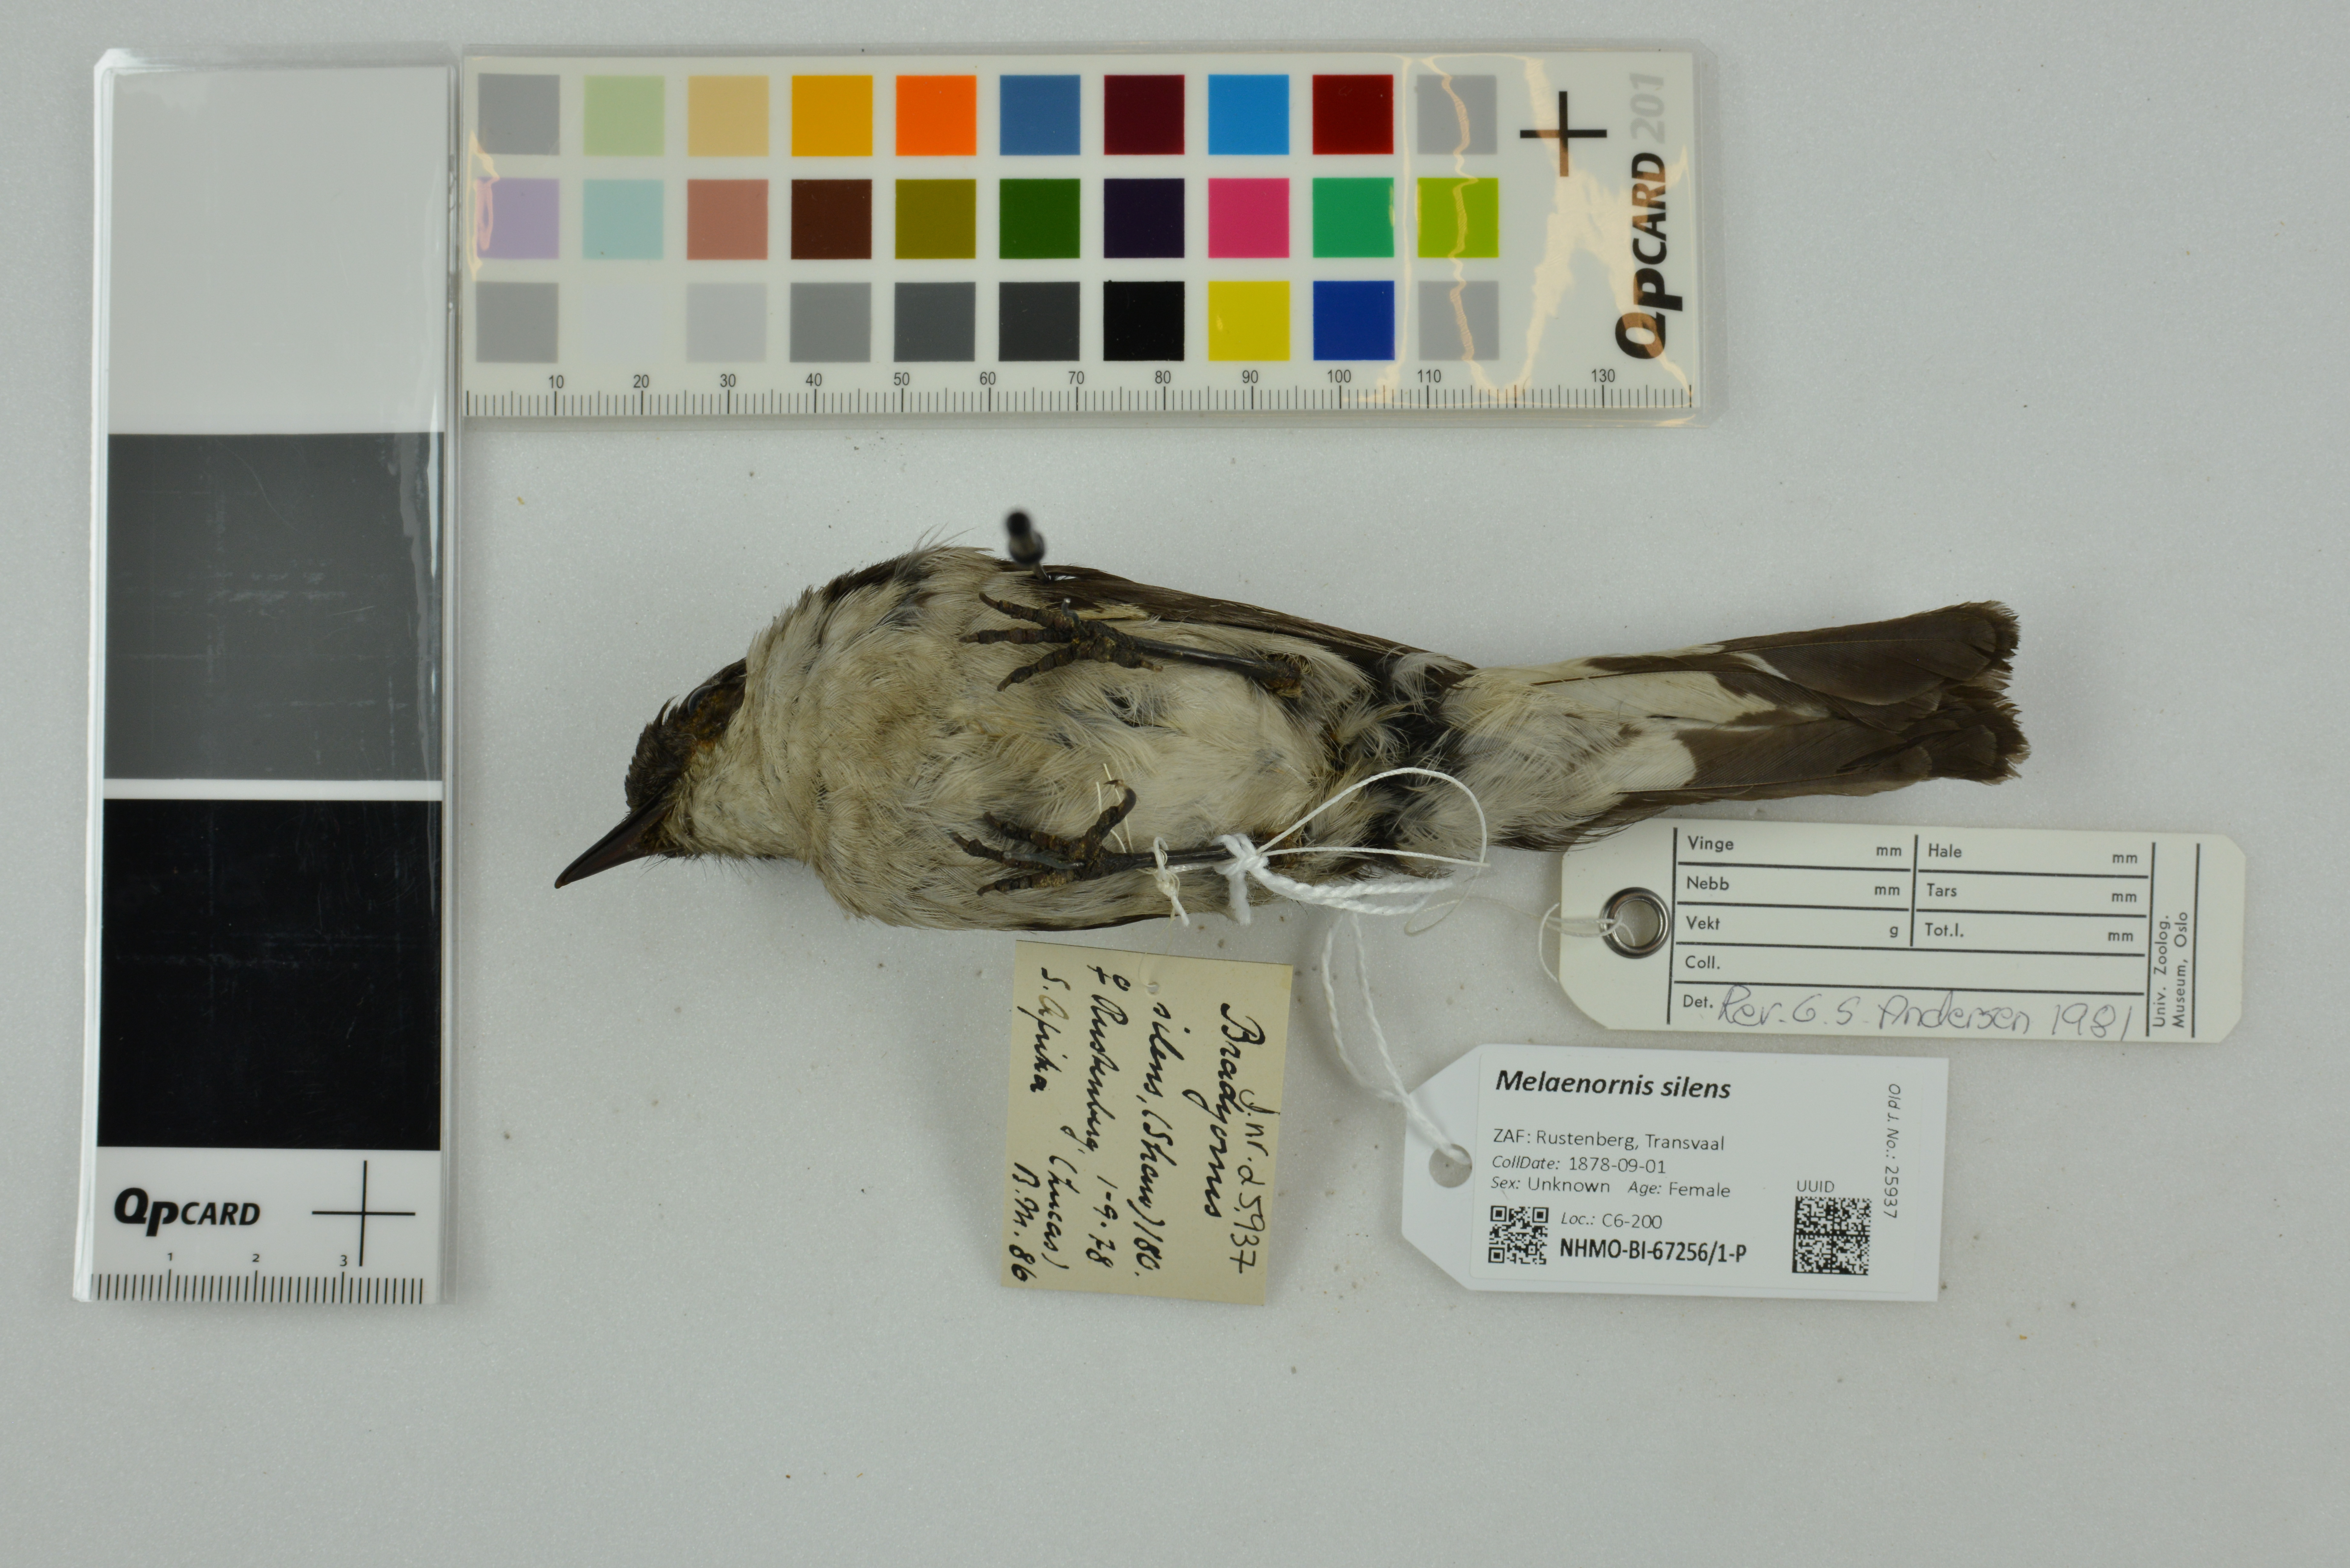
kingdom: Animalia
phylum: Chordata
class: Aves
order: Passeriformes
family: Muscicapidae
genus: Sigelus
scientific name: Sigelus silens
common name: Fiscal flycatcher
